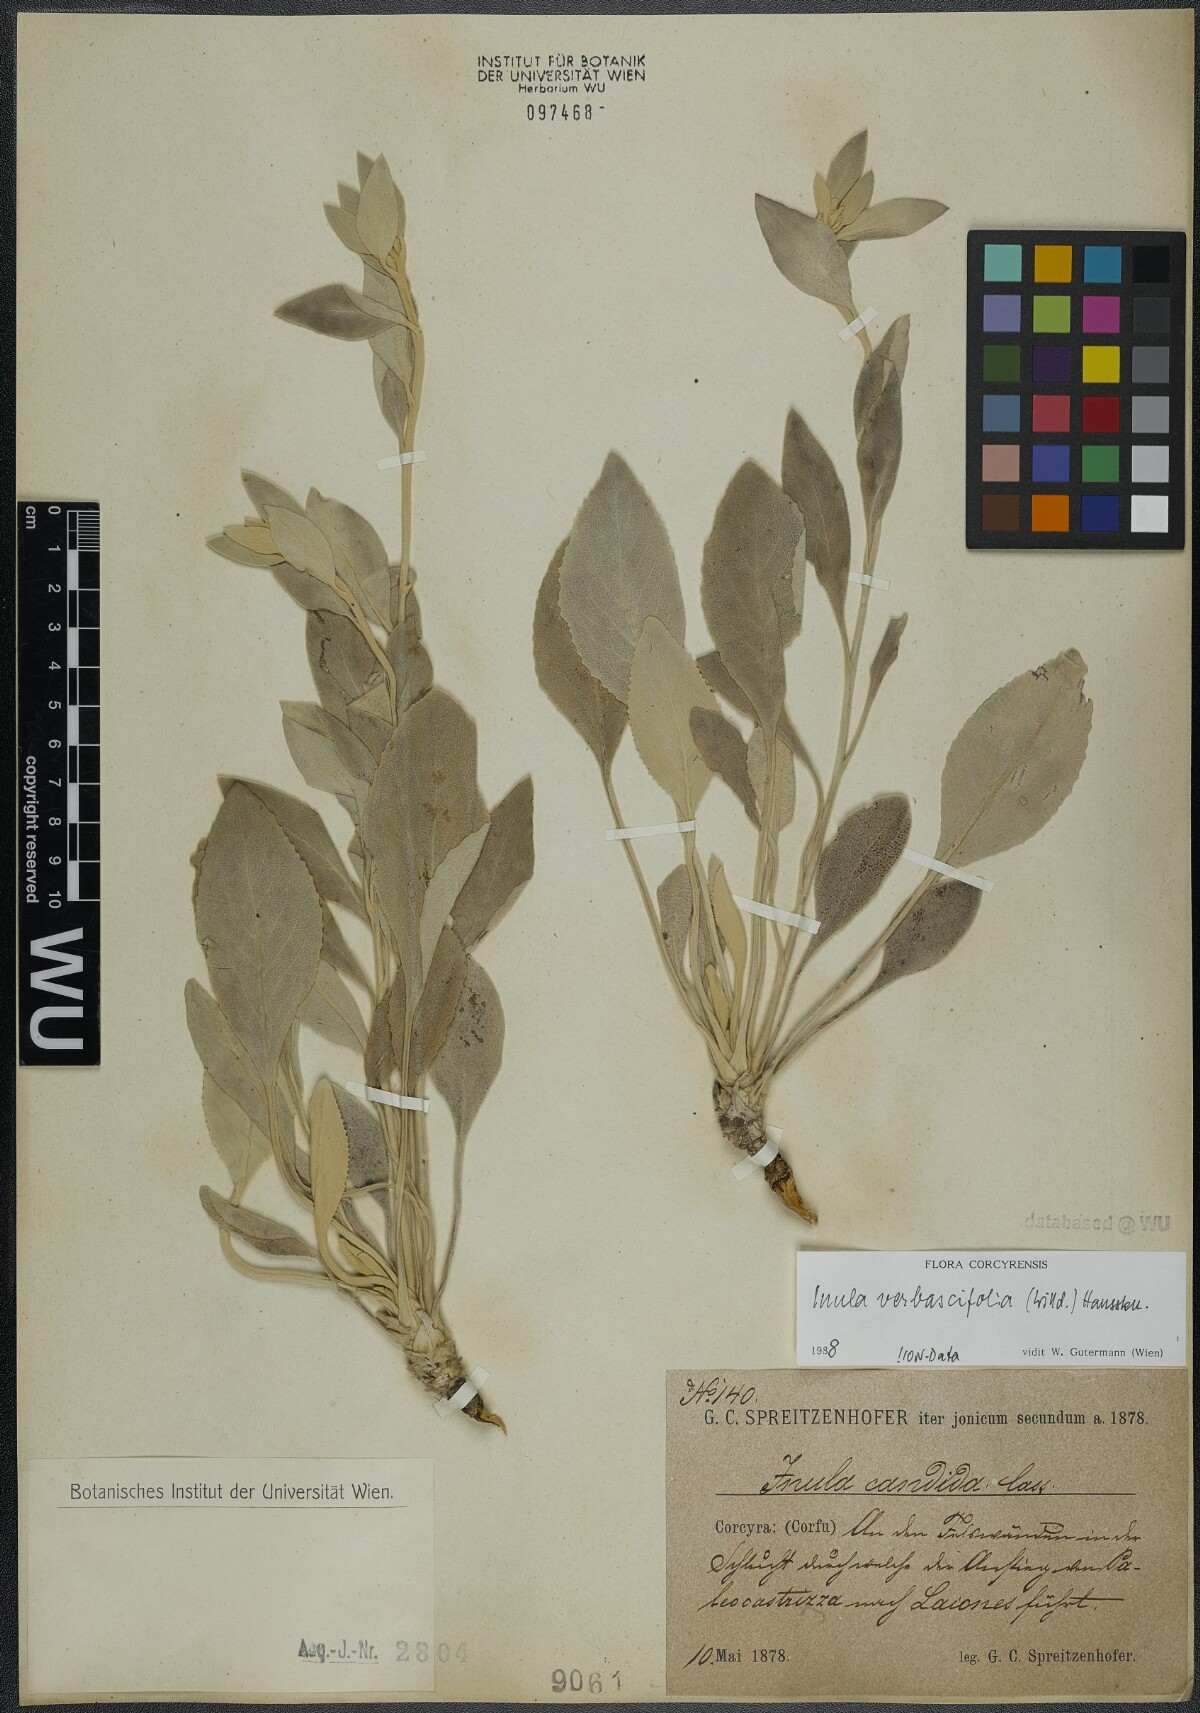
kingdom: Plantae
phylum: Tracheophyta
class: Magnoliopsida
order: Asterales
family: Asteraceae
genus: Pentanema
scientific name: Pentanema verbascifolium
